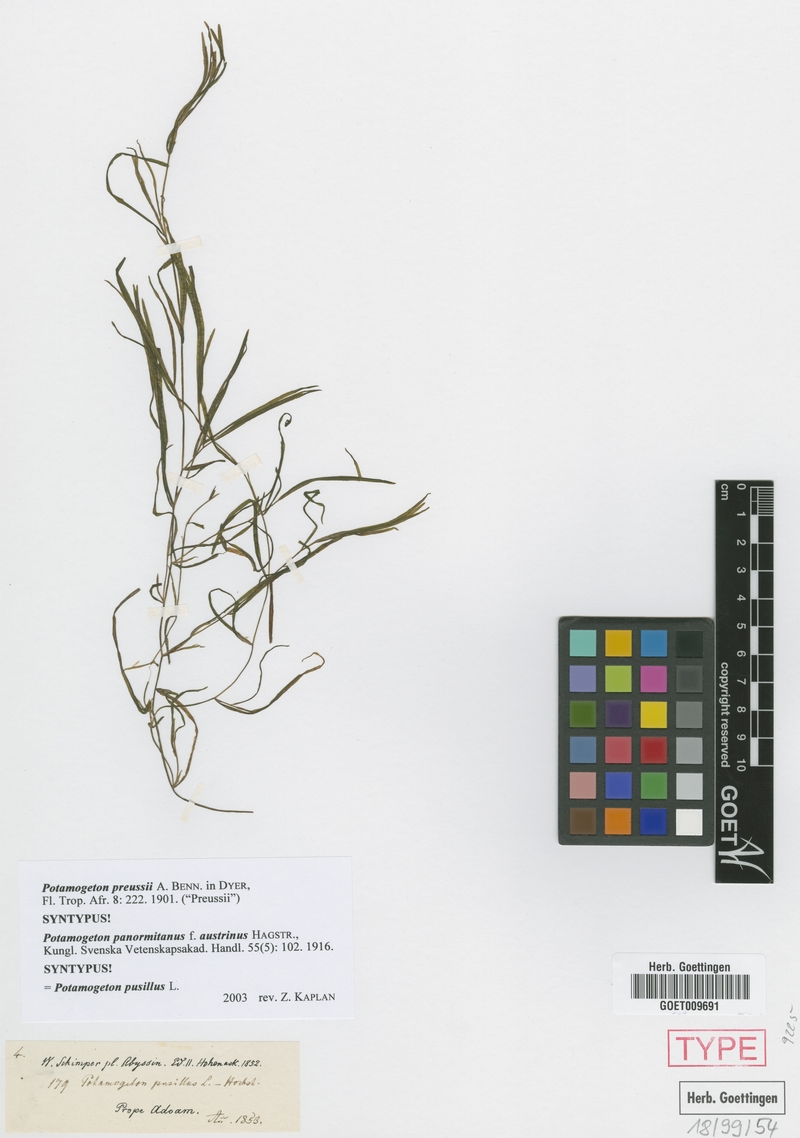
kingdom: Plantae
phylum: Tracheophyta
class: Liliopsida
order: Alismatales
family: Potamogetonaceae
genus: Potamogeton
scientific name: Potamogeton pusillus
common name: Lesser pondweed
